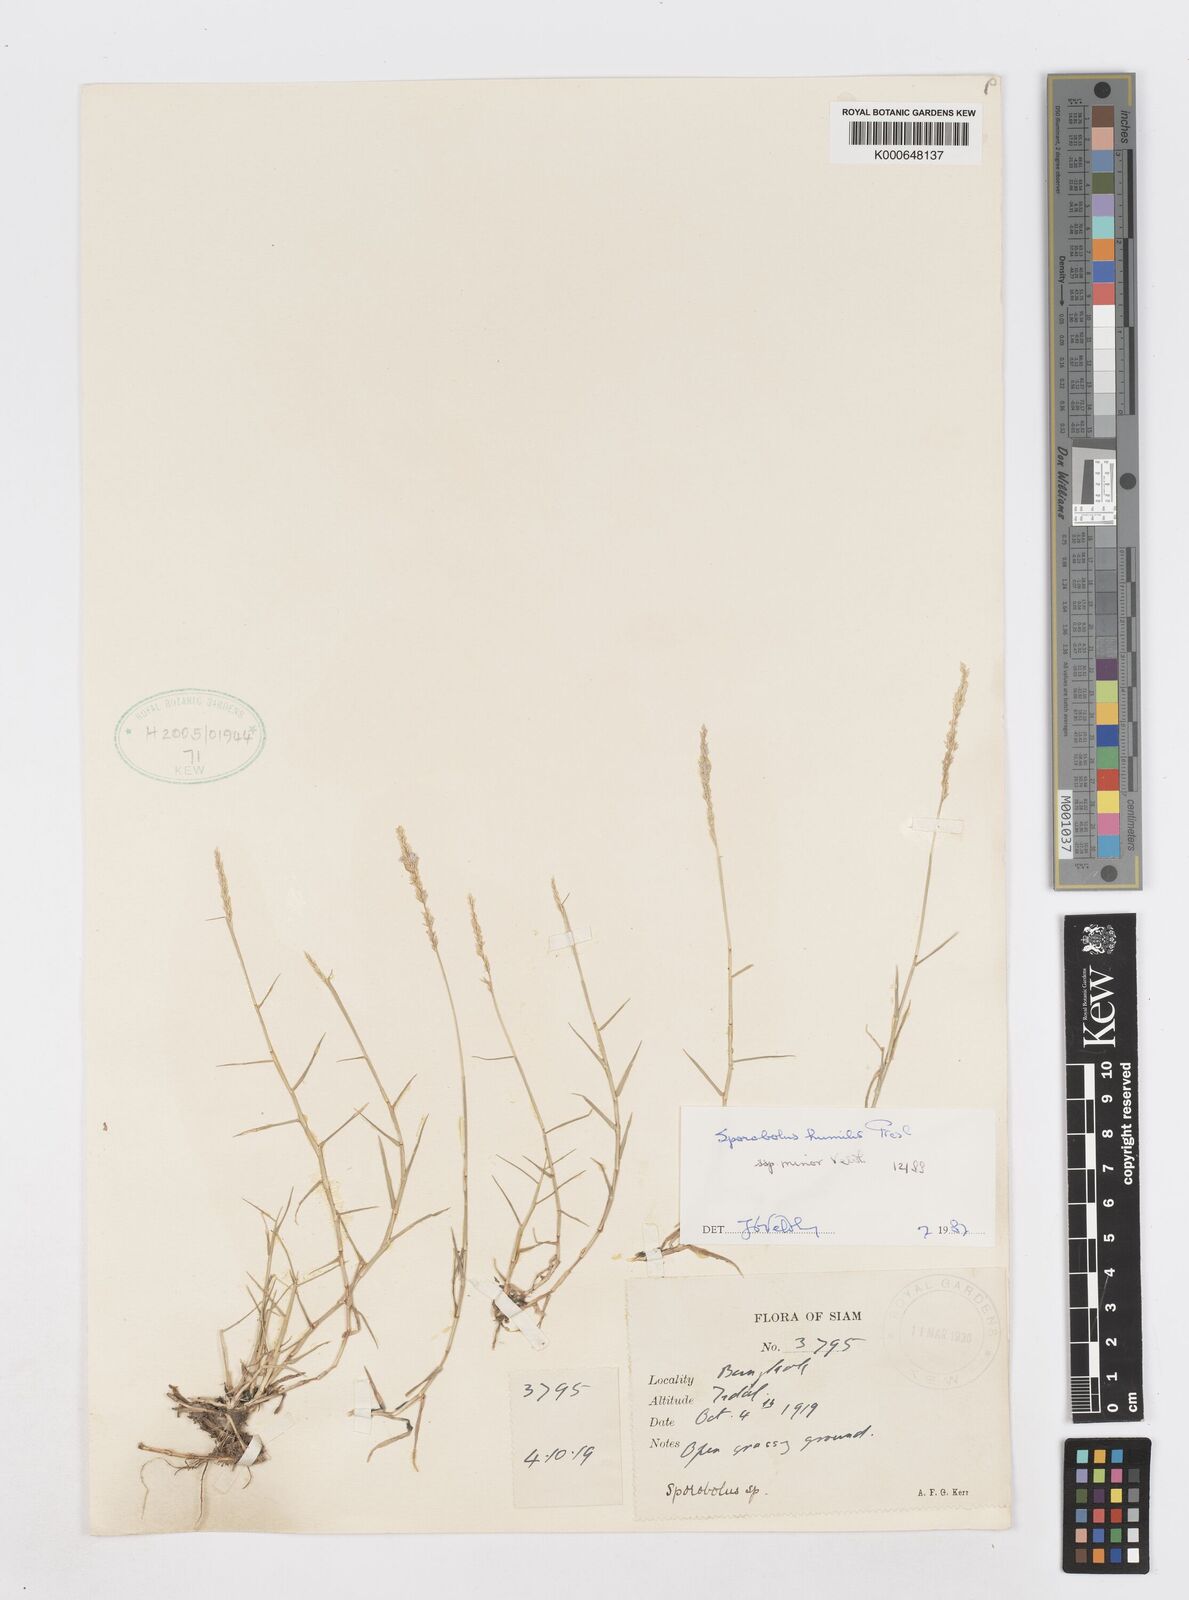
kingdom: Plantae
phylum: Tracheophyta
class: Liliopsida
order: Poales
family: Poaceae
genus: Sporobolus
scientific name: Sporobolus harmandii
